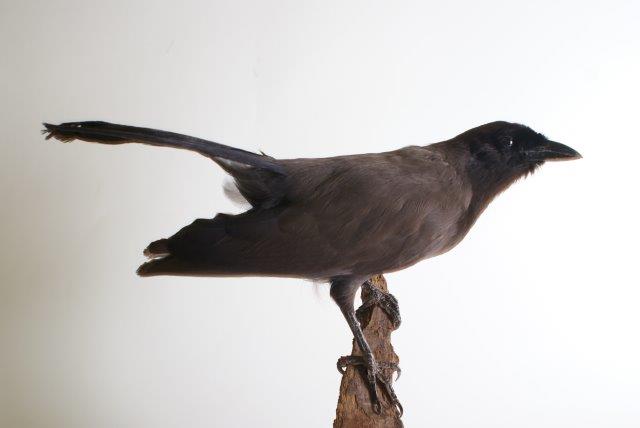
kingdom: Animalia
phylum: Chordata
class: Aves
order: Passeriformes
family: Corvidae
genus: Cyanocorax
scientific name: Cyanocorax cyanomelas
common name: Purplish jay
